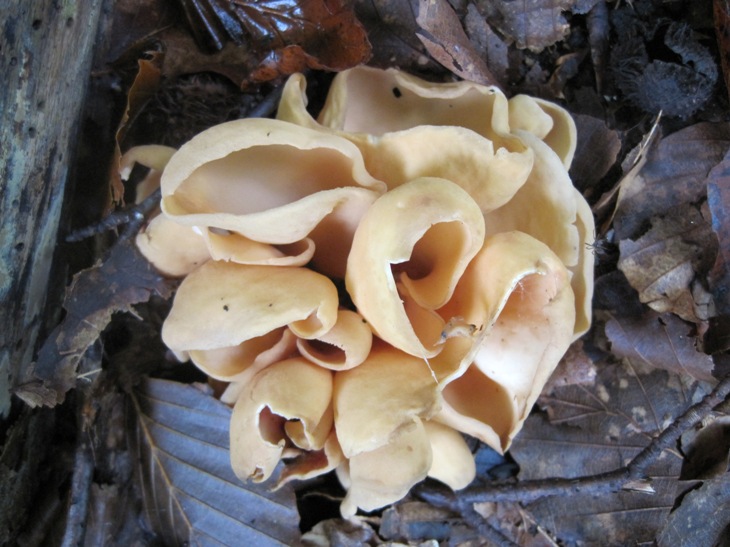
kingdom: Fungi
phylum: Ascomycota
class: Pezizomycetes
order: Pezizales
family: Otideaceae
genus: Otidea
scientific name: Otidea onotica
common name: æsel-ørebæger
